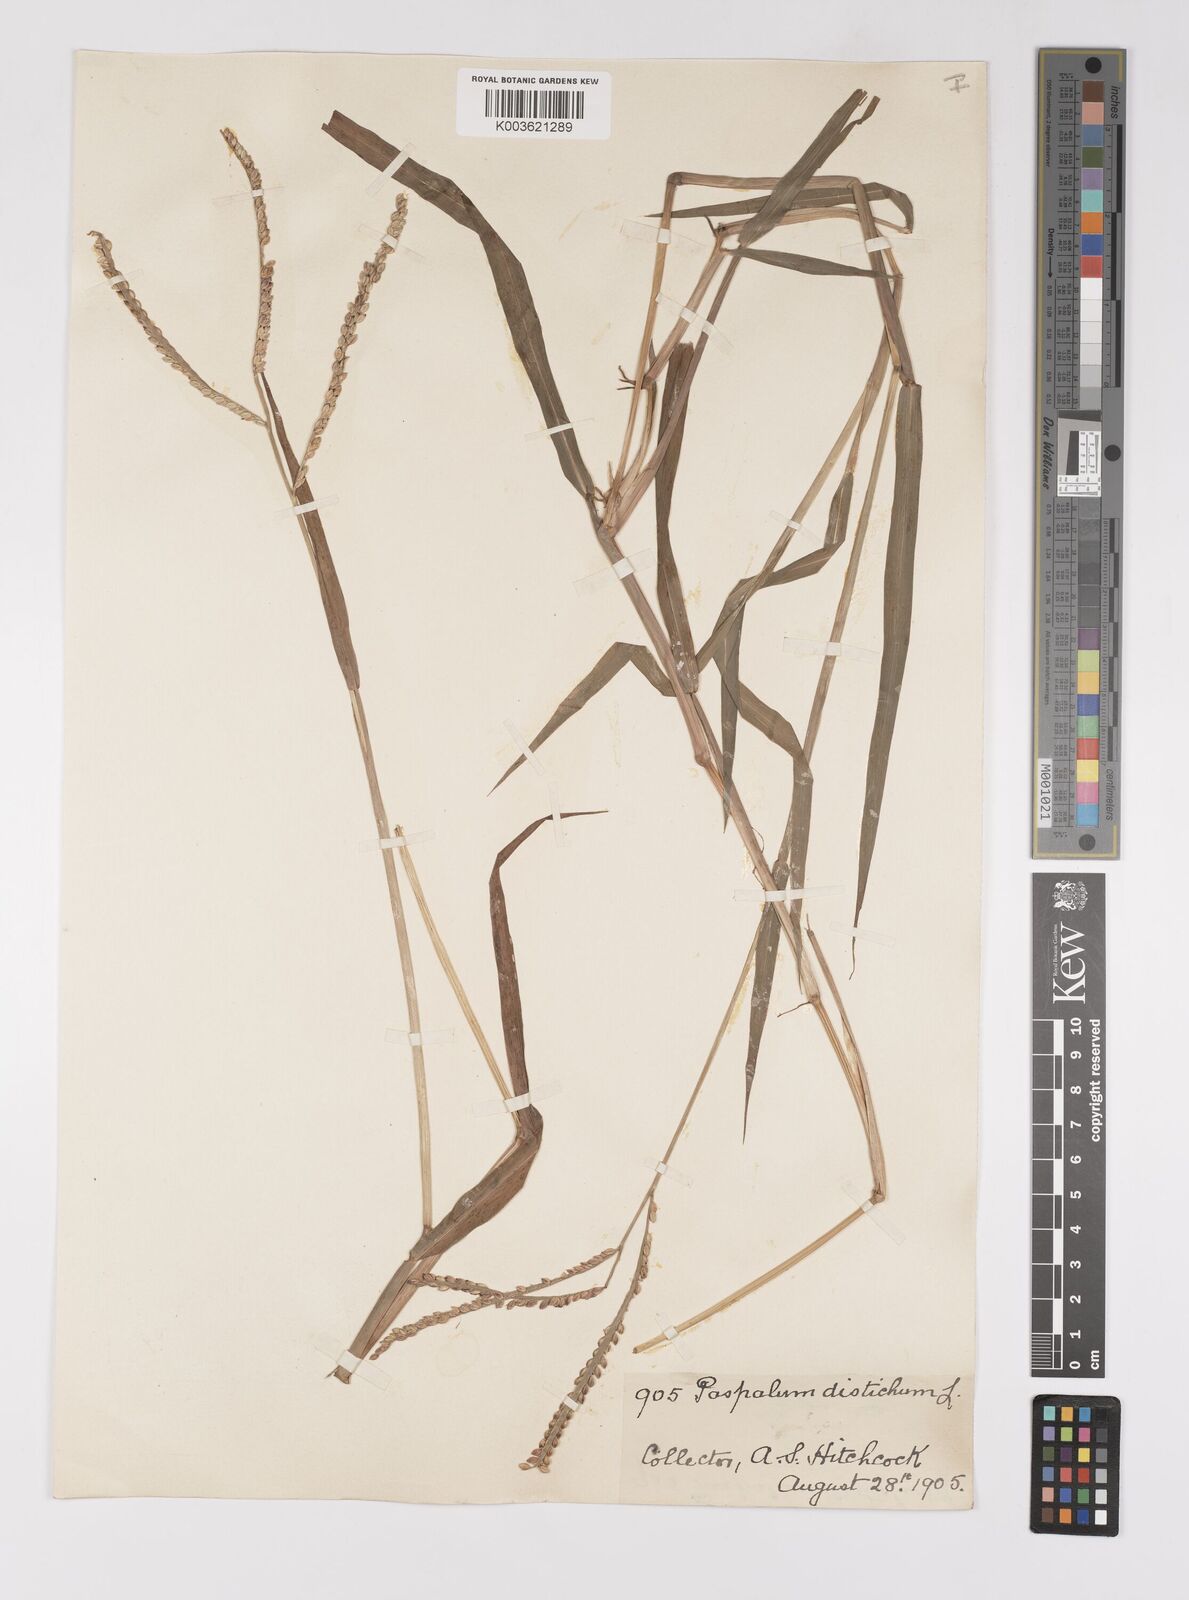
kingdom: Plantae
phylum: Tracheophyta
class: Liliopsida
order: Poales
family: Poaceae
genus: Paspalum
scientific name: Paspalum distichum
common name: Knotgrass
